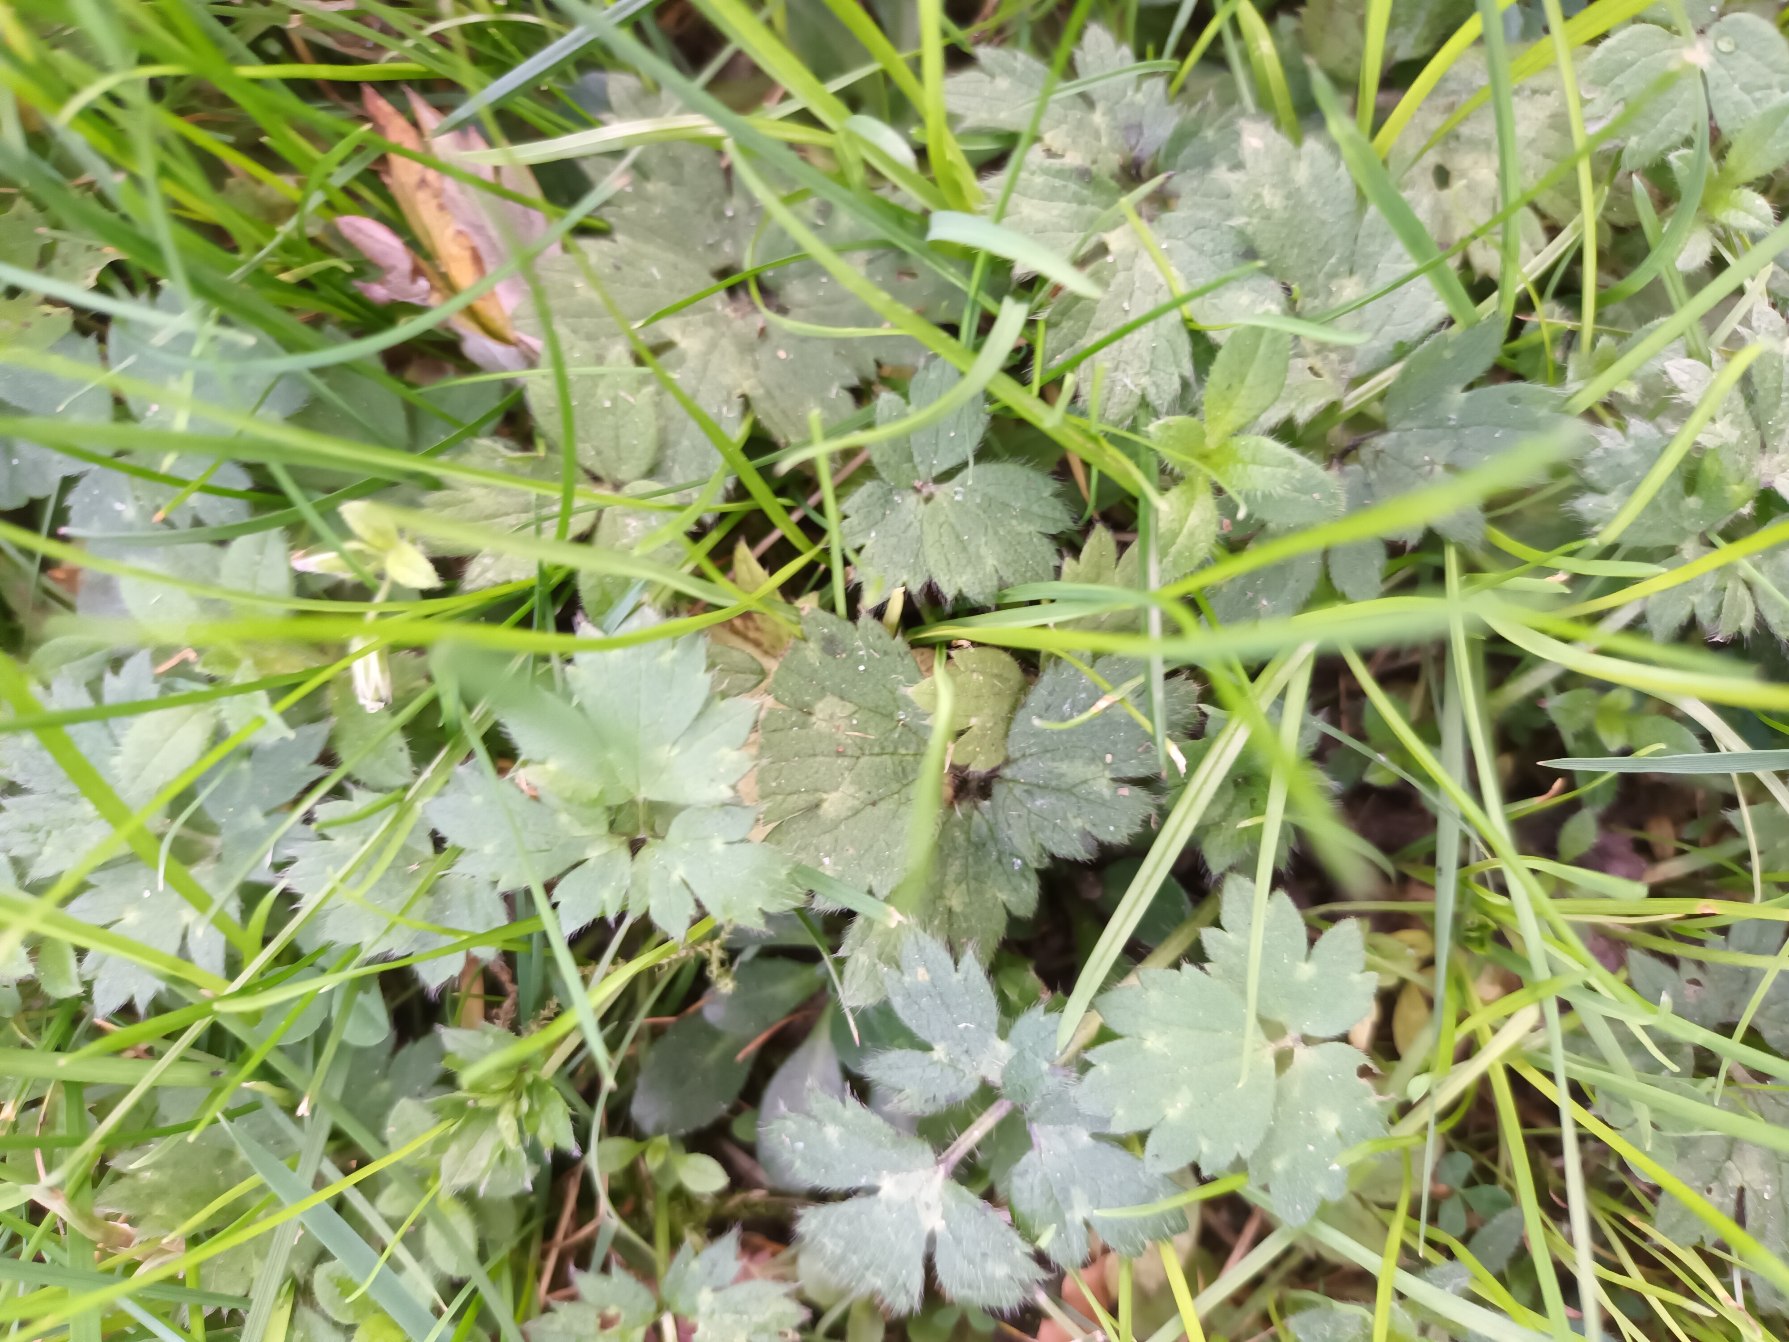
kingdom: Plantae
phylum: Tracheophyta
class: Magnoliopsida
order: Ranunculales
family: Ranunculaceae
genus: Ranunculus
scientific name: Ranunculus repens
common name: Lav ranunkel
